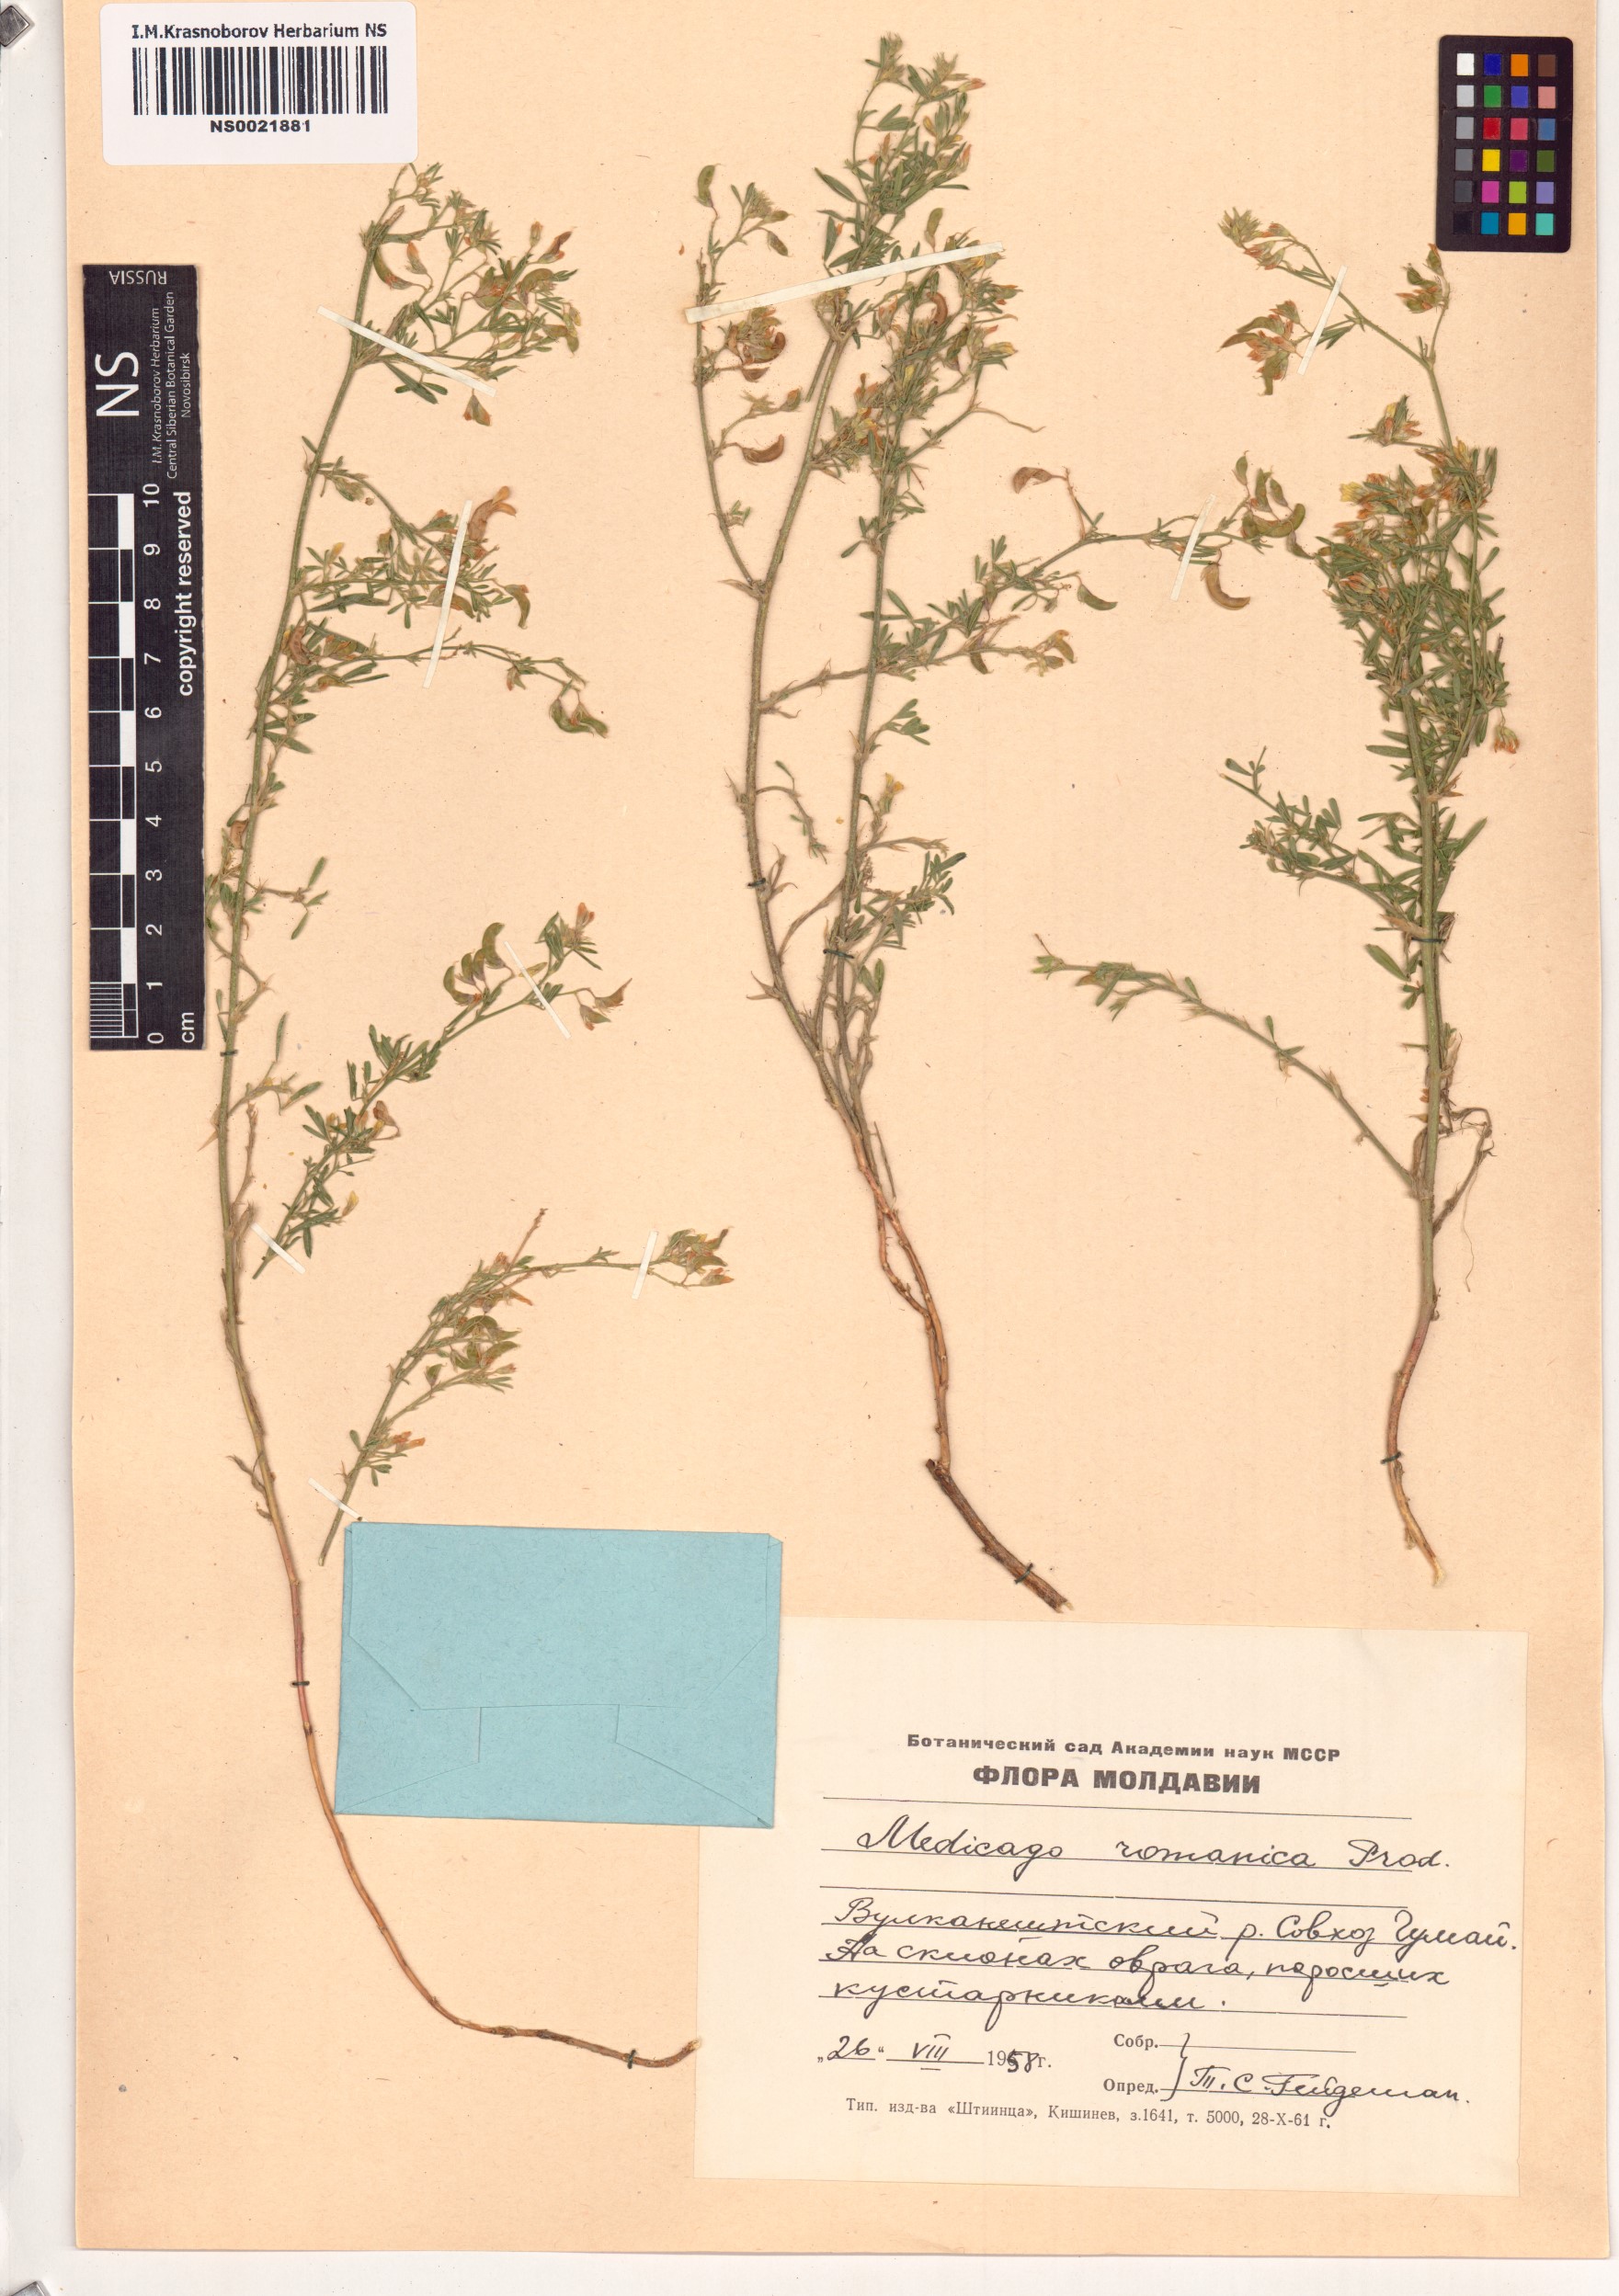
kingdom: Plantae
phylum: Tracheophyta
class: Magnoliopsida
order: Fabales
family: Fabaceae
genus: Medicago
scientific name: Medicago falcata
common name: Sickle medick
